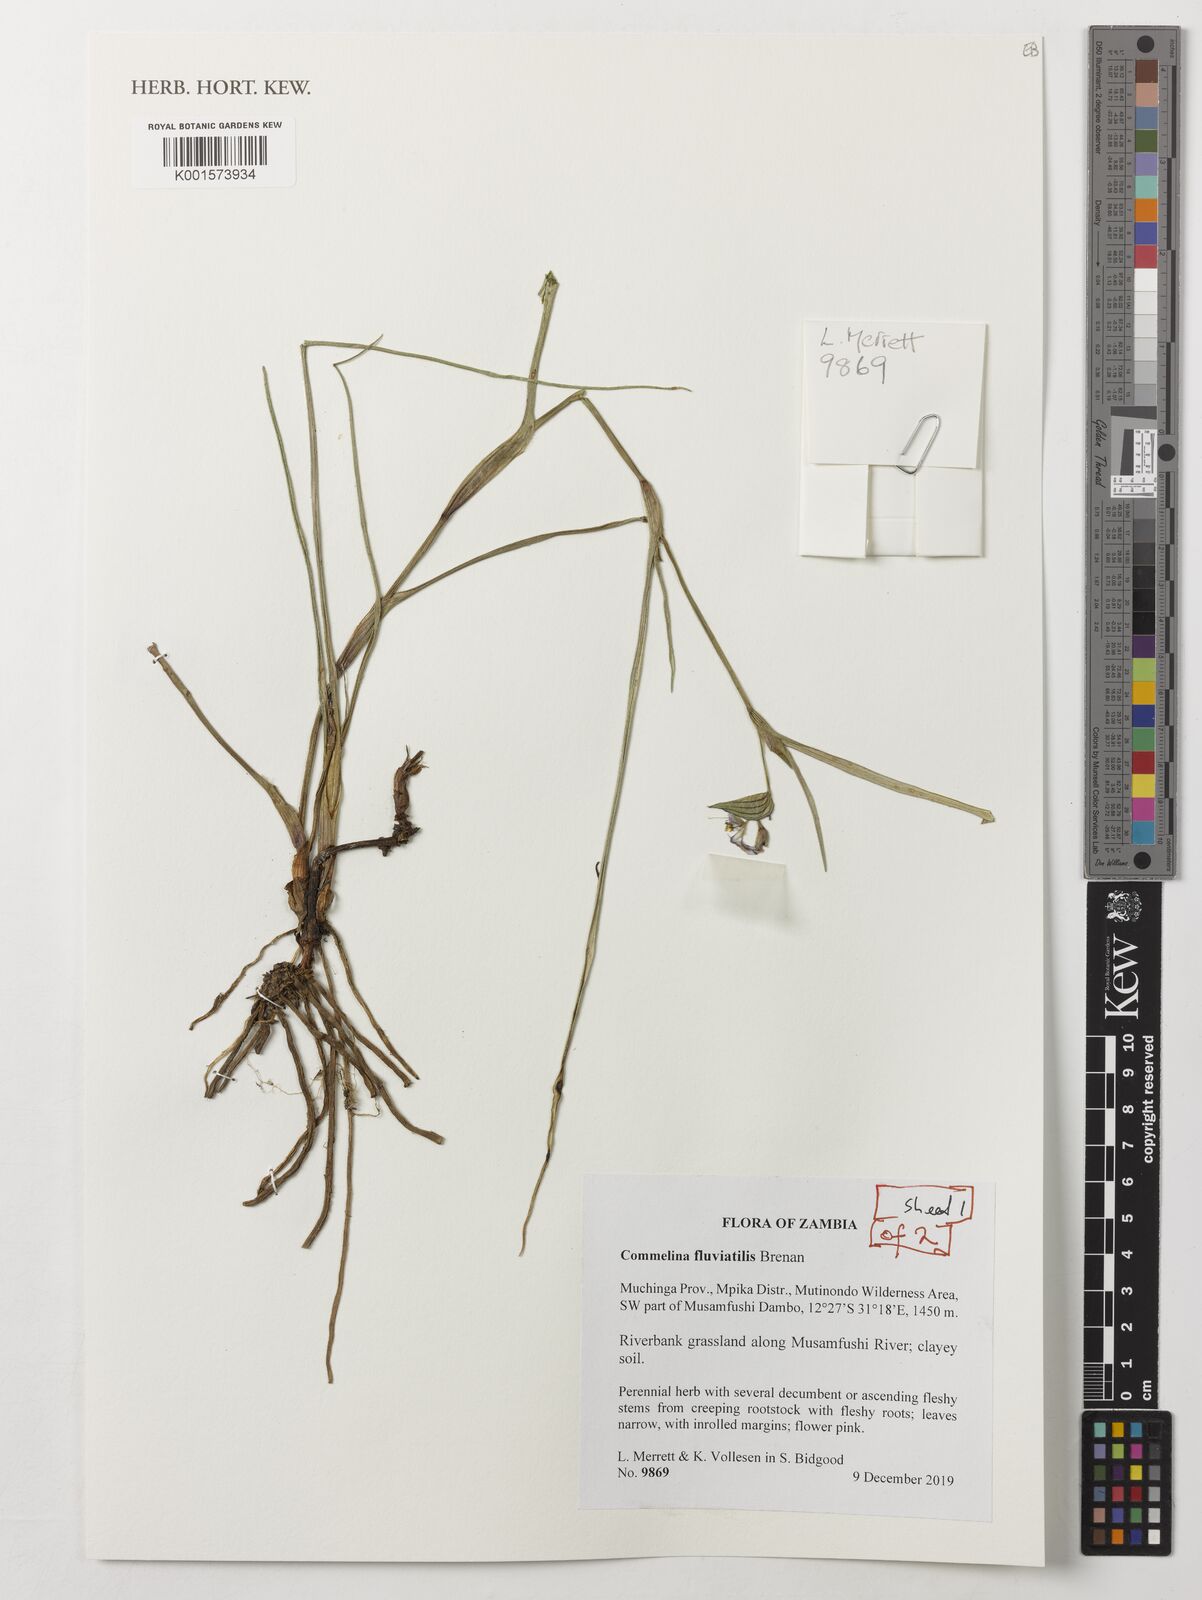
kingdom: Plantae
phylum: Tracheophyta
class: Liliopsida
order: Commelinales
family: Commelinaceae
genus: Commelina
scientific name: Commelina fluviatilis
